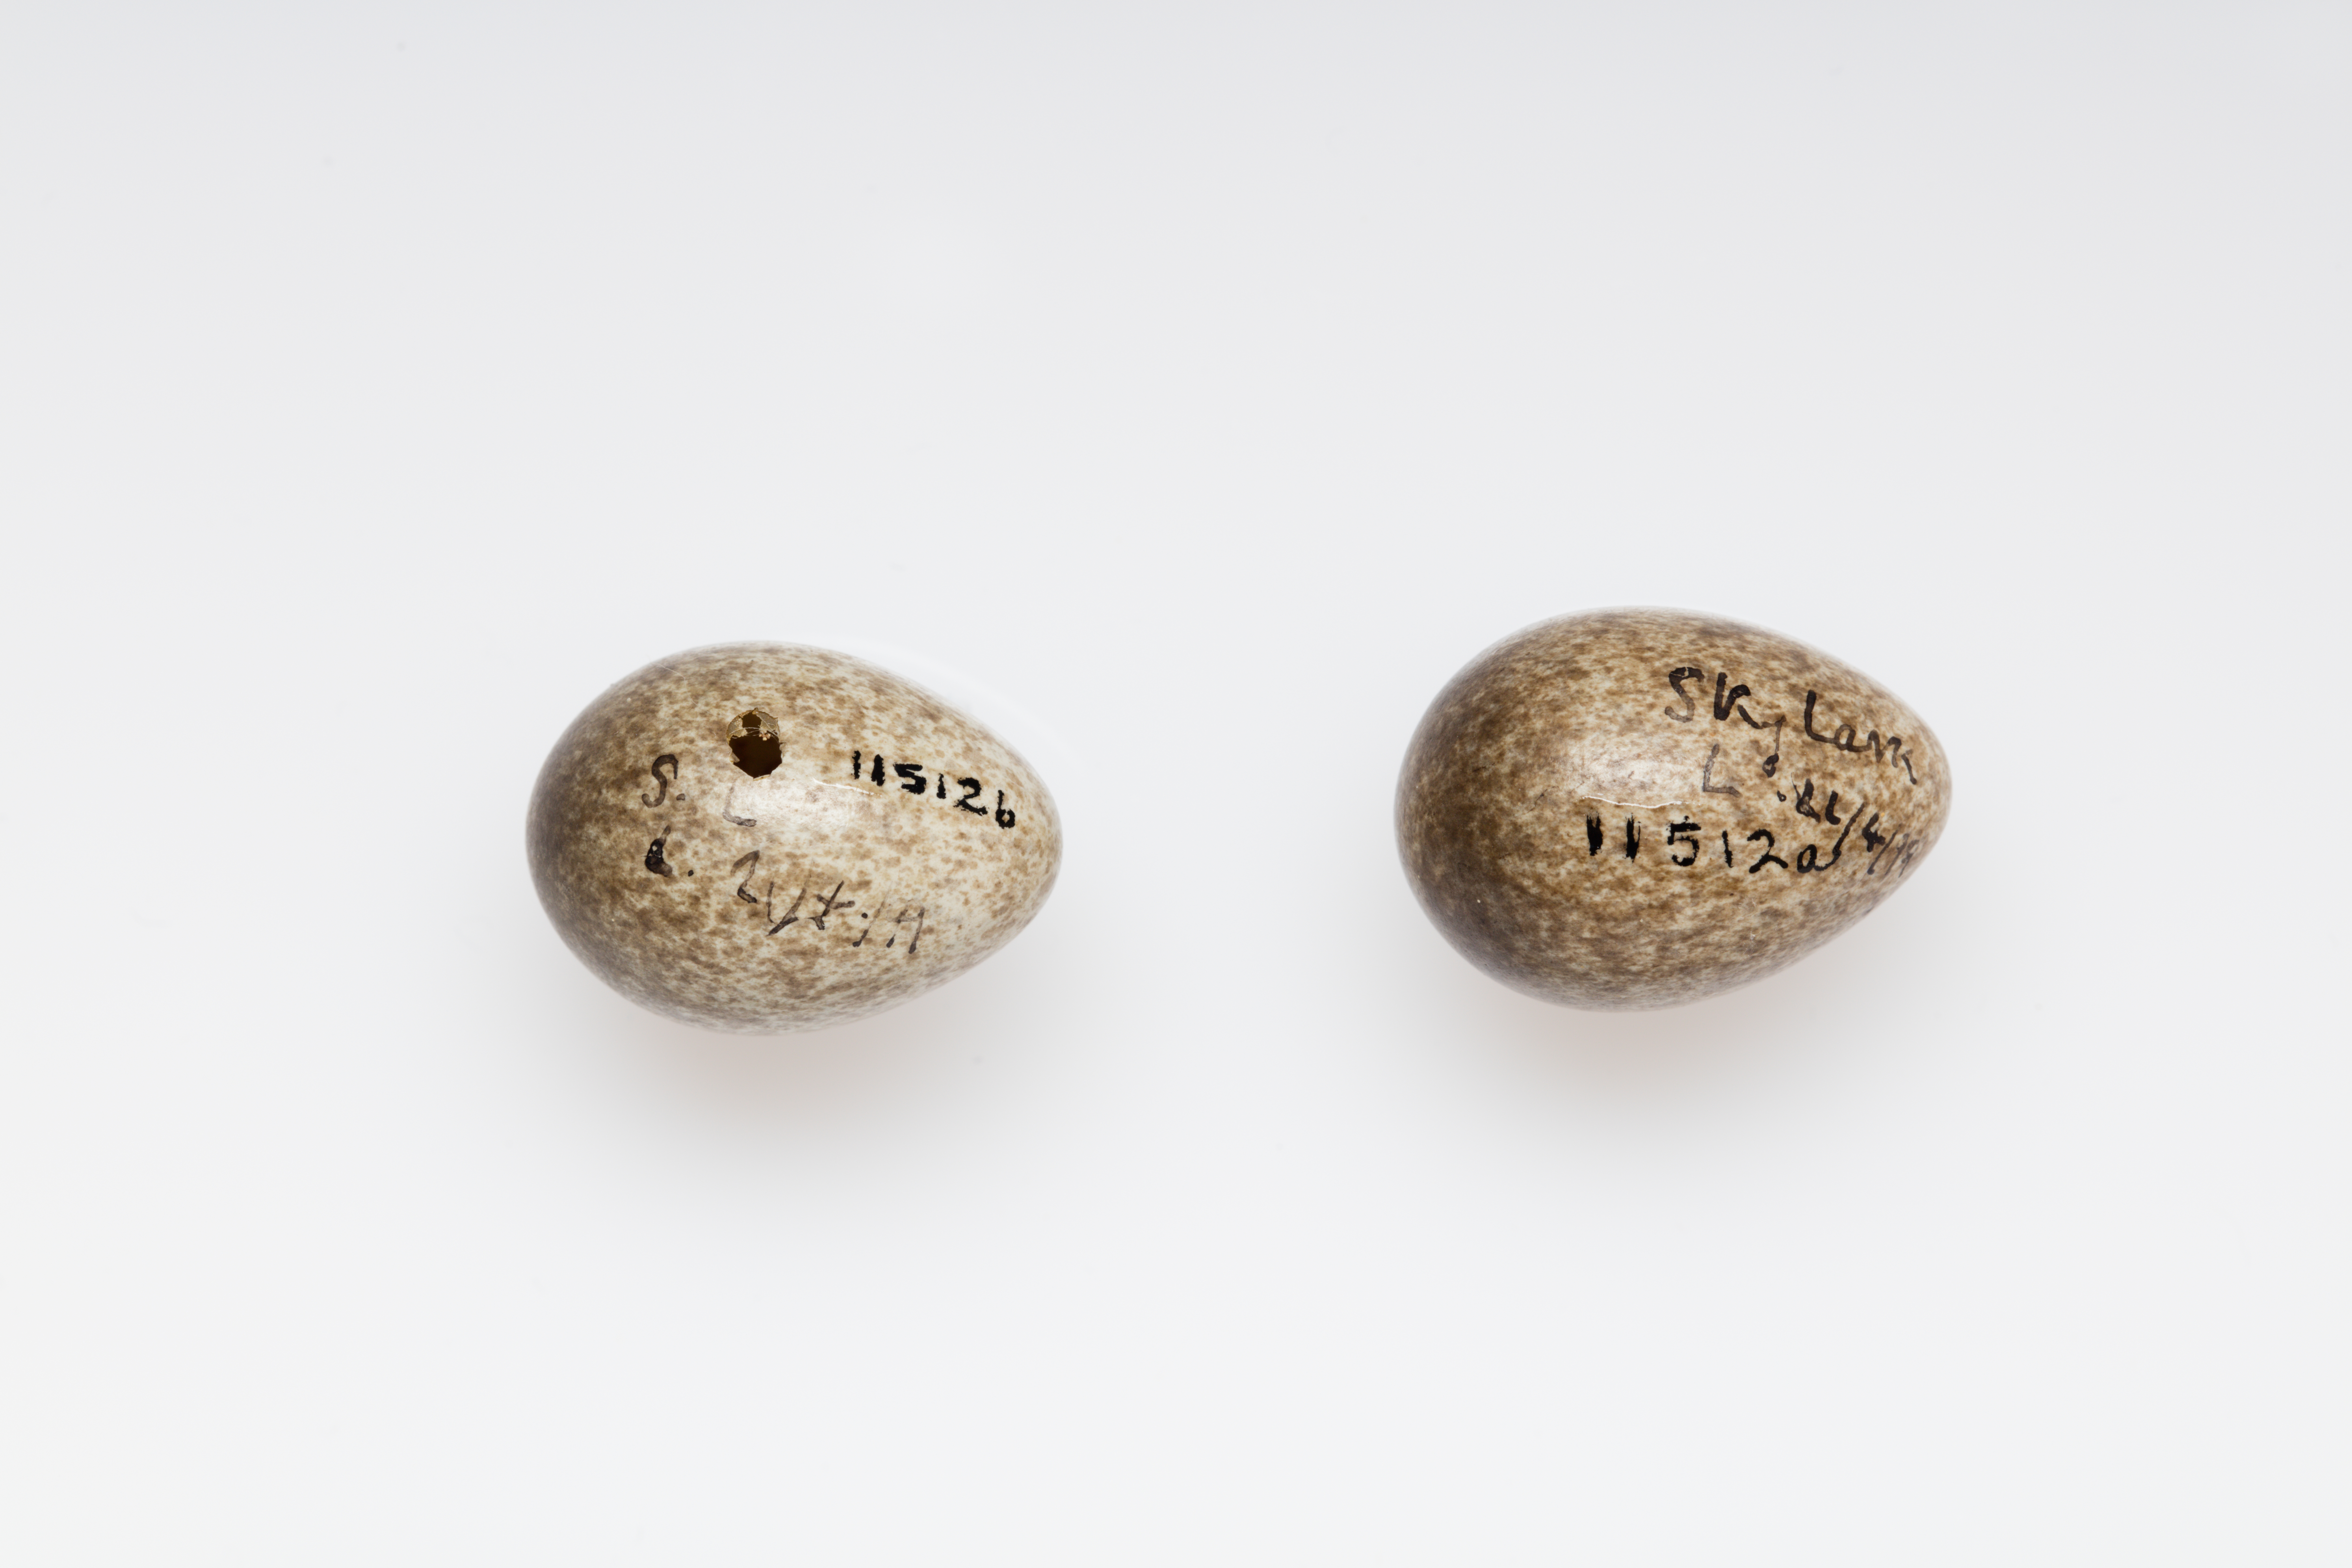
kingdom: Animalia
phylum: Chordata
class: Aves
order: Passeriformes
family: Alaudidae
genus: Alauda
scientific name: Alauda arvensis
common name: Eurasian skylark
